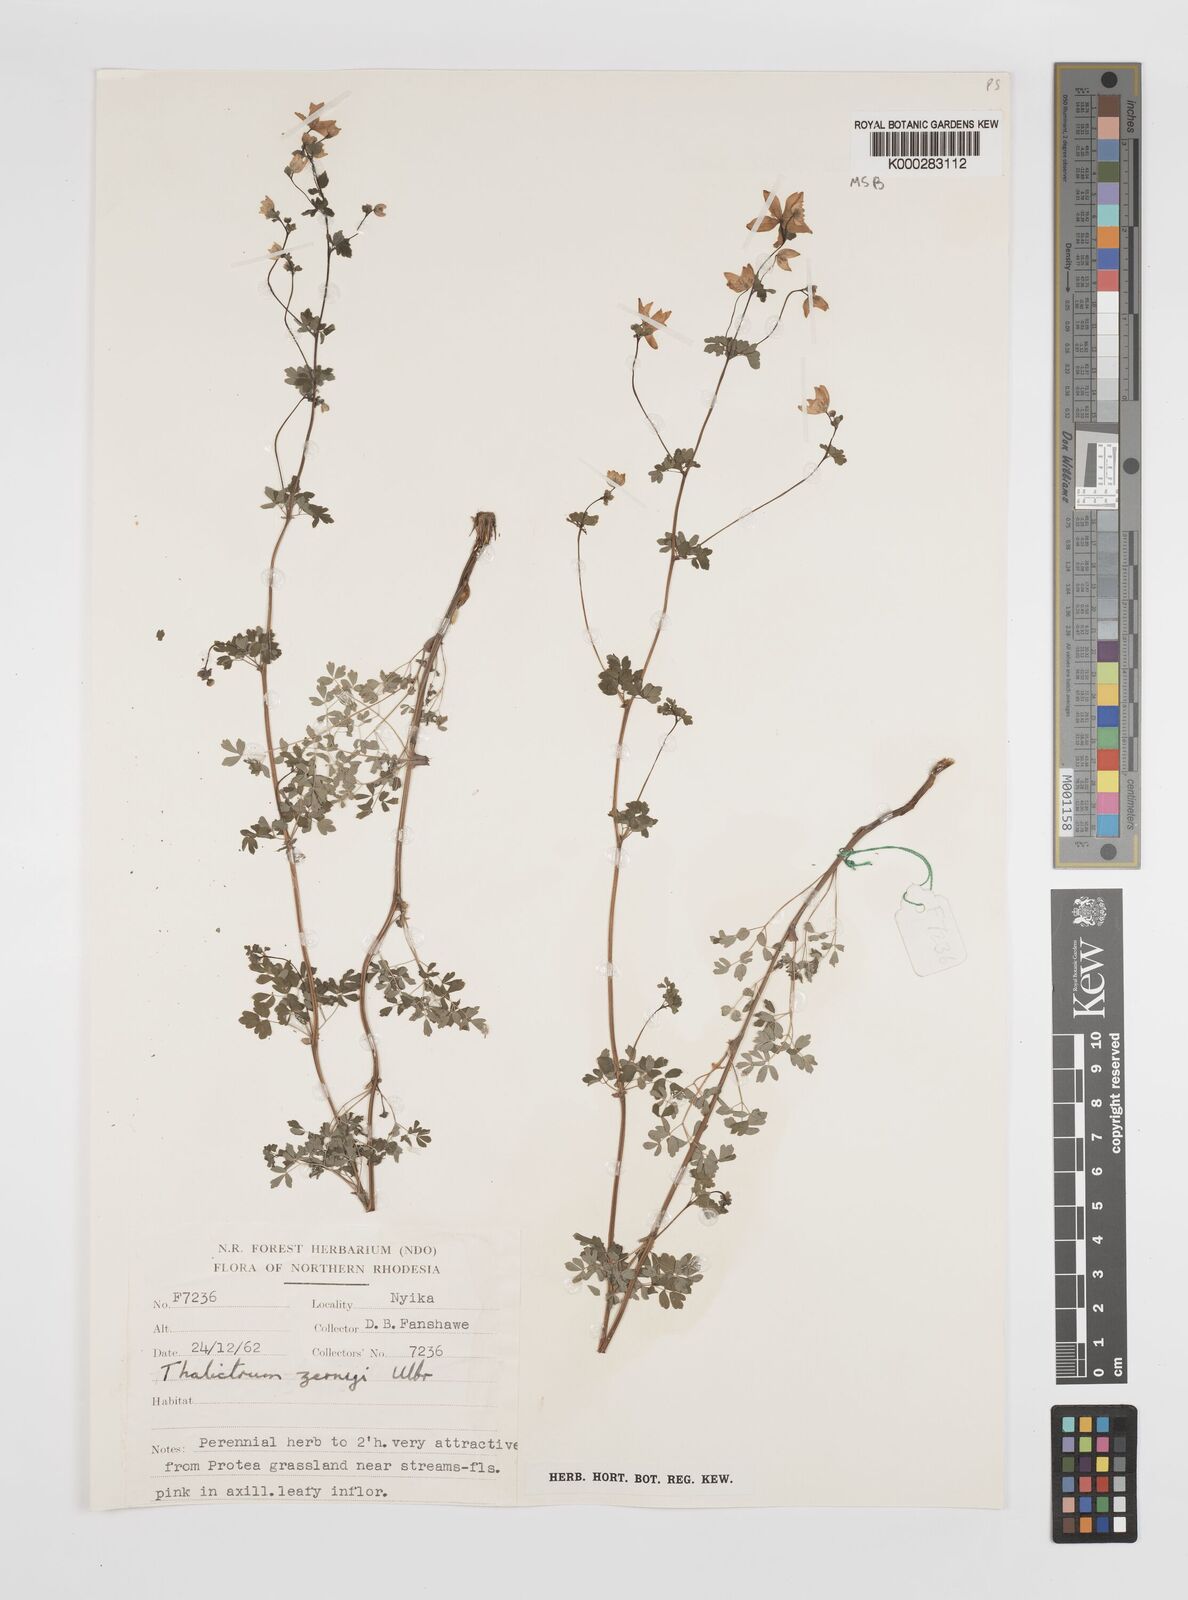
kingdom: Plantae
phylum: Tracheophyta
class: Magnoliopsida
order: Ranunculales
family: Ranunculaceae
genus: Thalictrum
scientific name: Thalictrum zernyi
